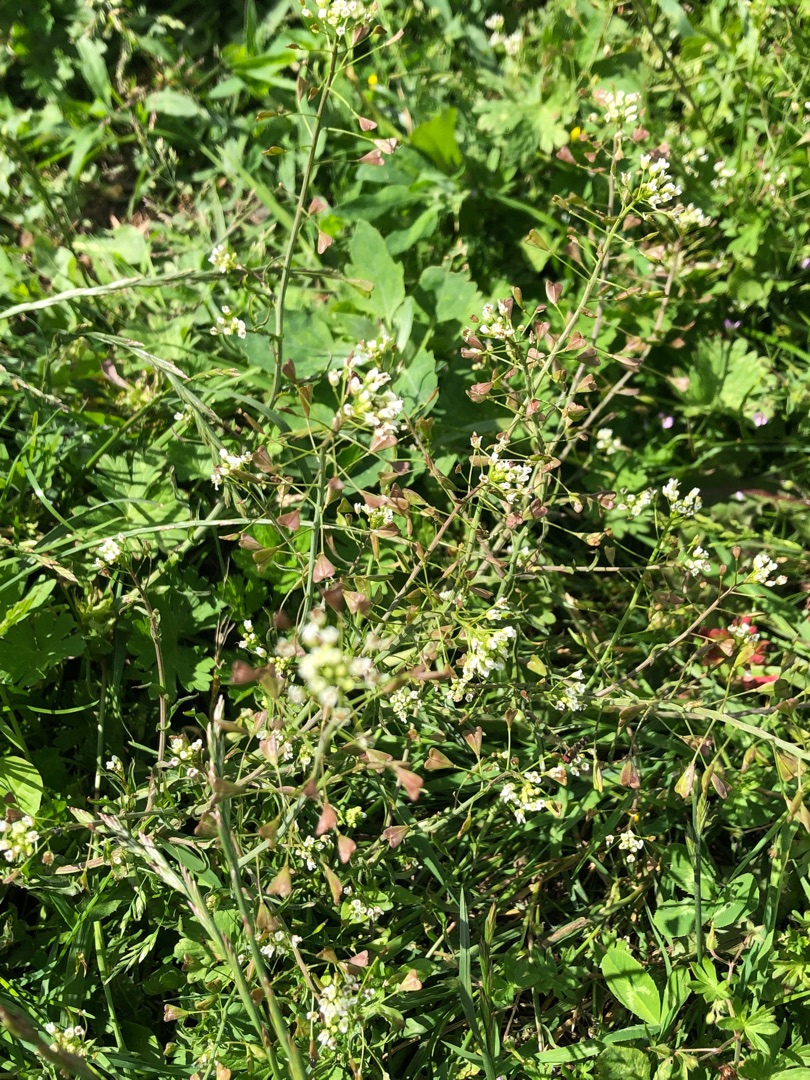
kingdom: Plantae
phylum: Tracheophyta
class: Magnoliopsida
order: Brassicales
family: Brassicaceae
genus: Capsella
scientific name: Capsella bursa-pastoris
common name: Hyrdetaske
